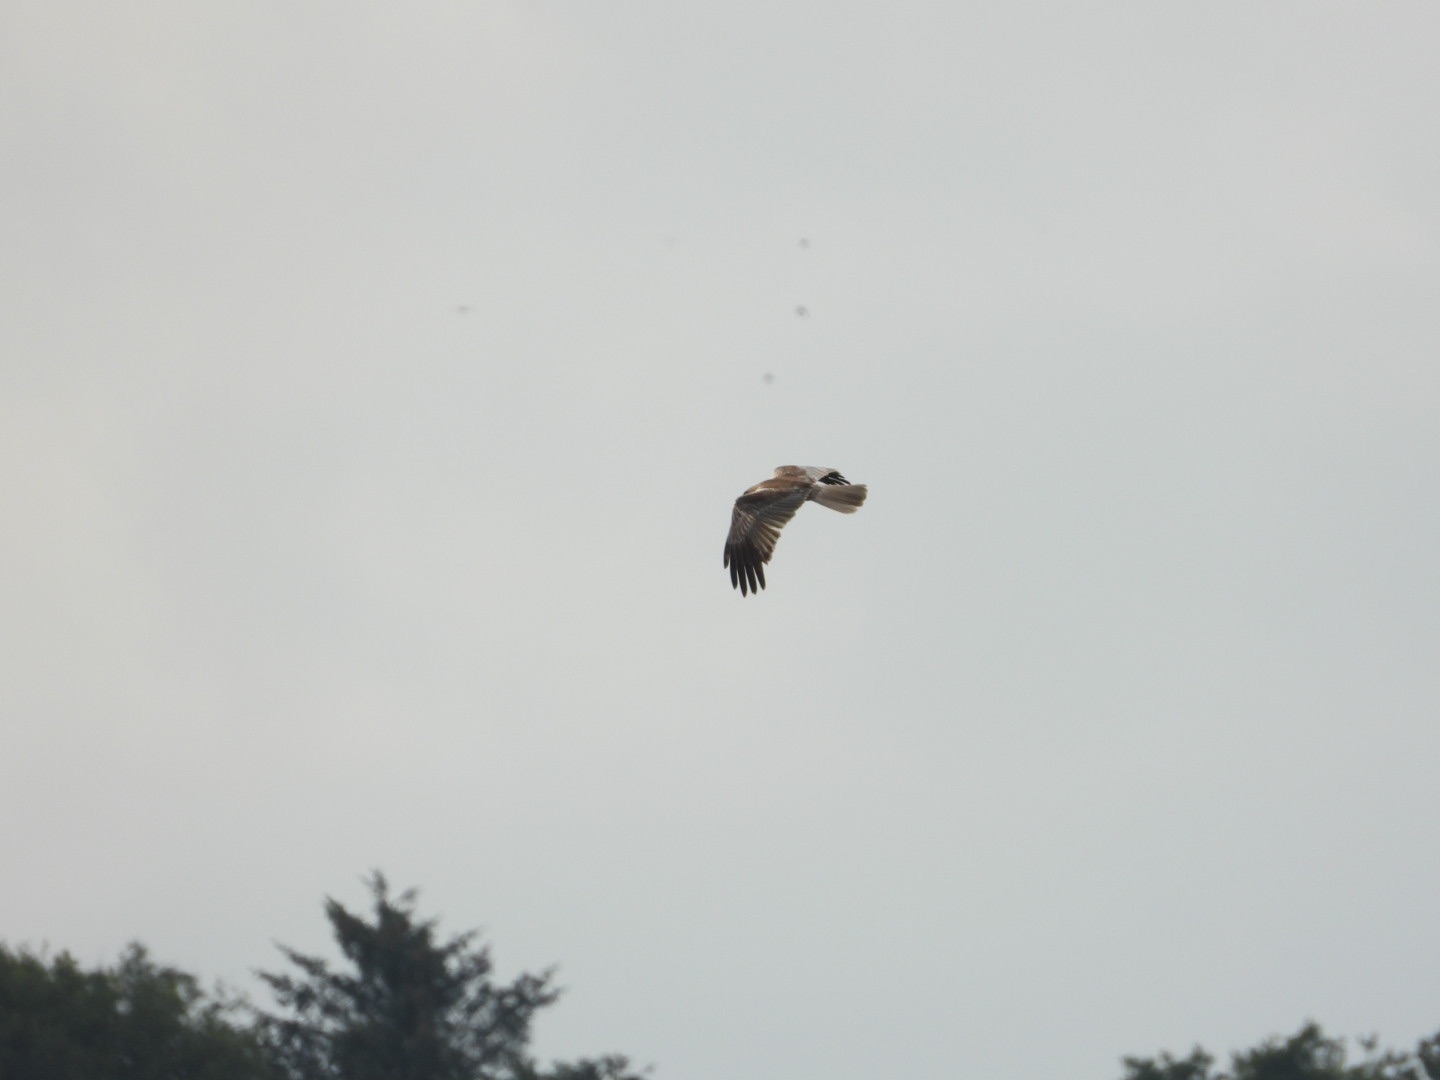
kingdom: Animalia
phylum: Chordata
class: Aves
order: Accipitriformes
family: Accipitridae
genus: Circus
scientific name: Circus aeruginosus
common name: Rørhøg
